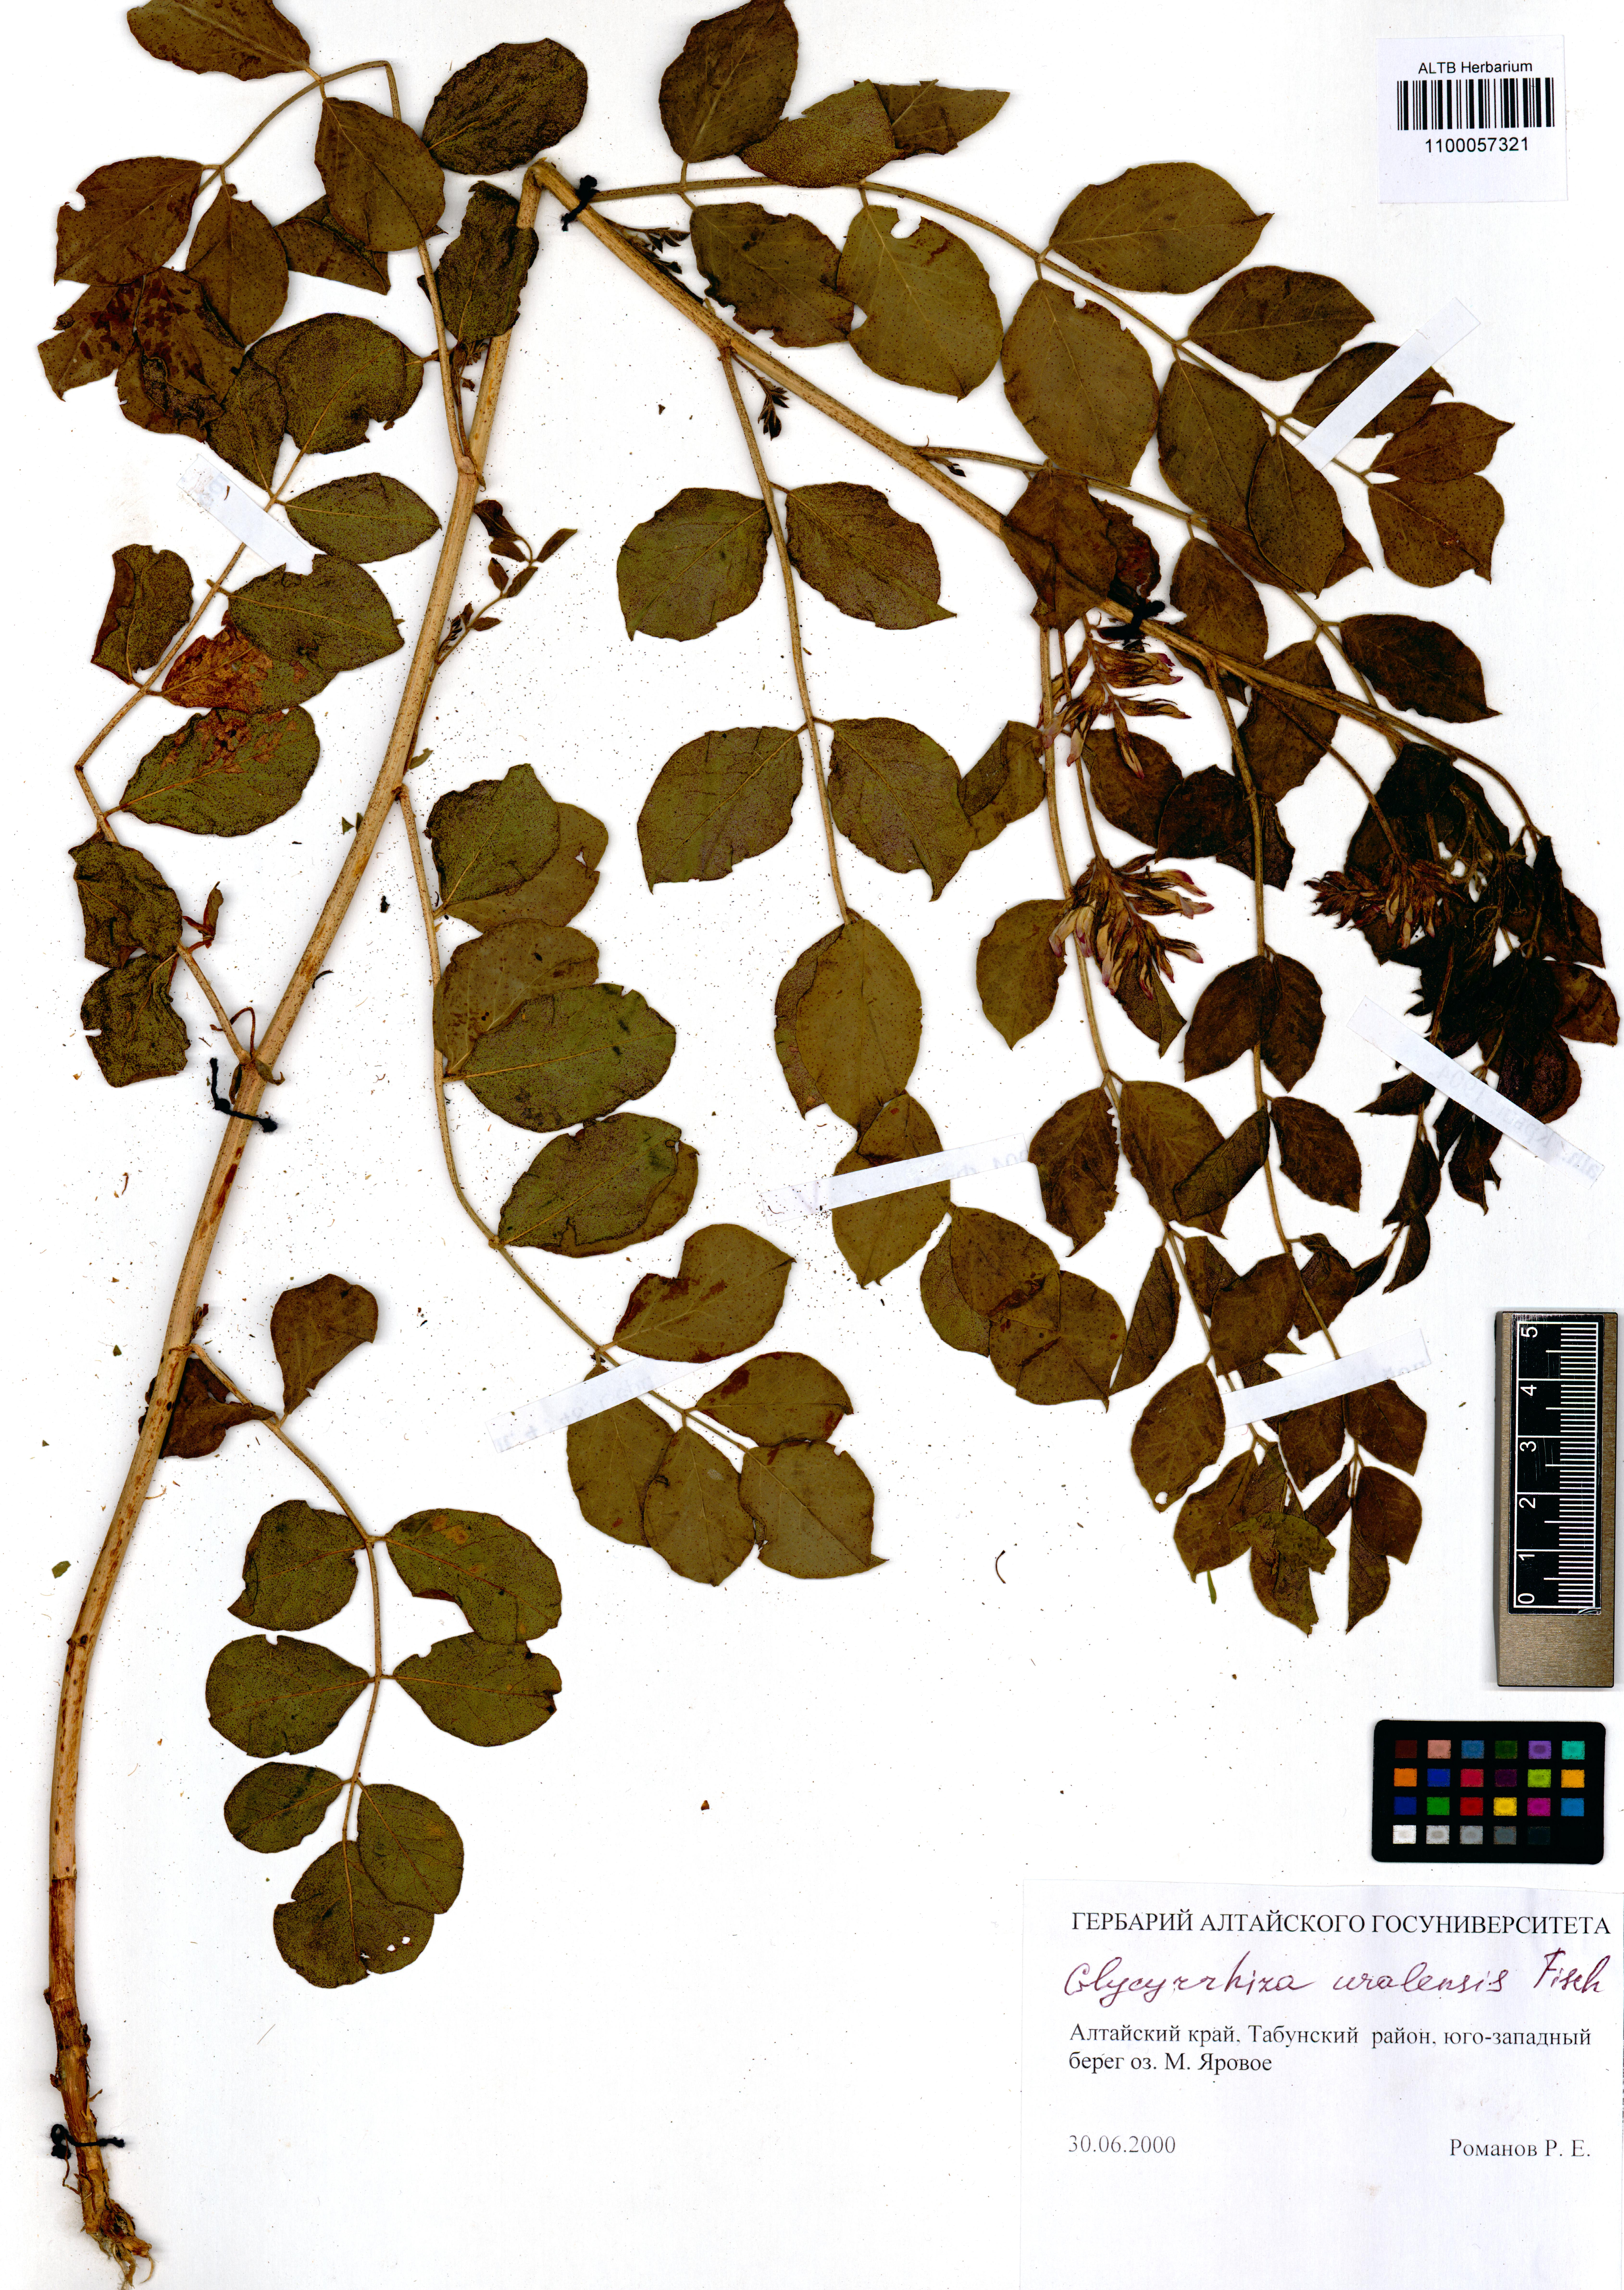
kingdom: Plantae
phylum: Tracheophyta
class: Magnoliopsida
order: Fabales
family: Fabaceae
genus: Glycyrrhiza
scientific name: Glycyrrhiza uralensis
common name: Chinese licorice
